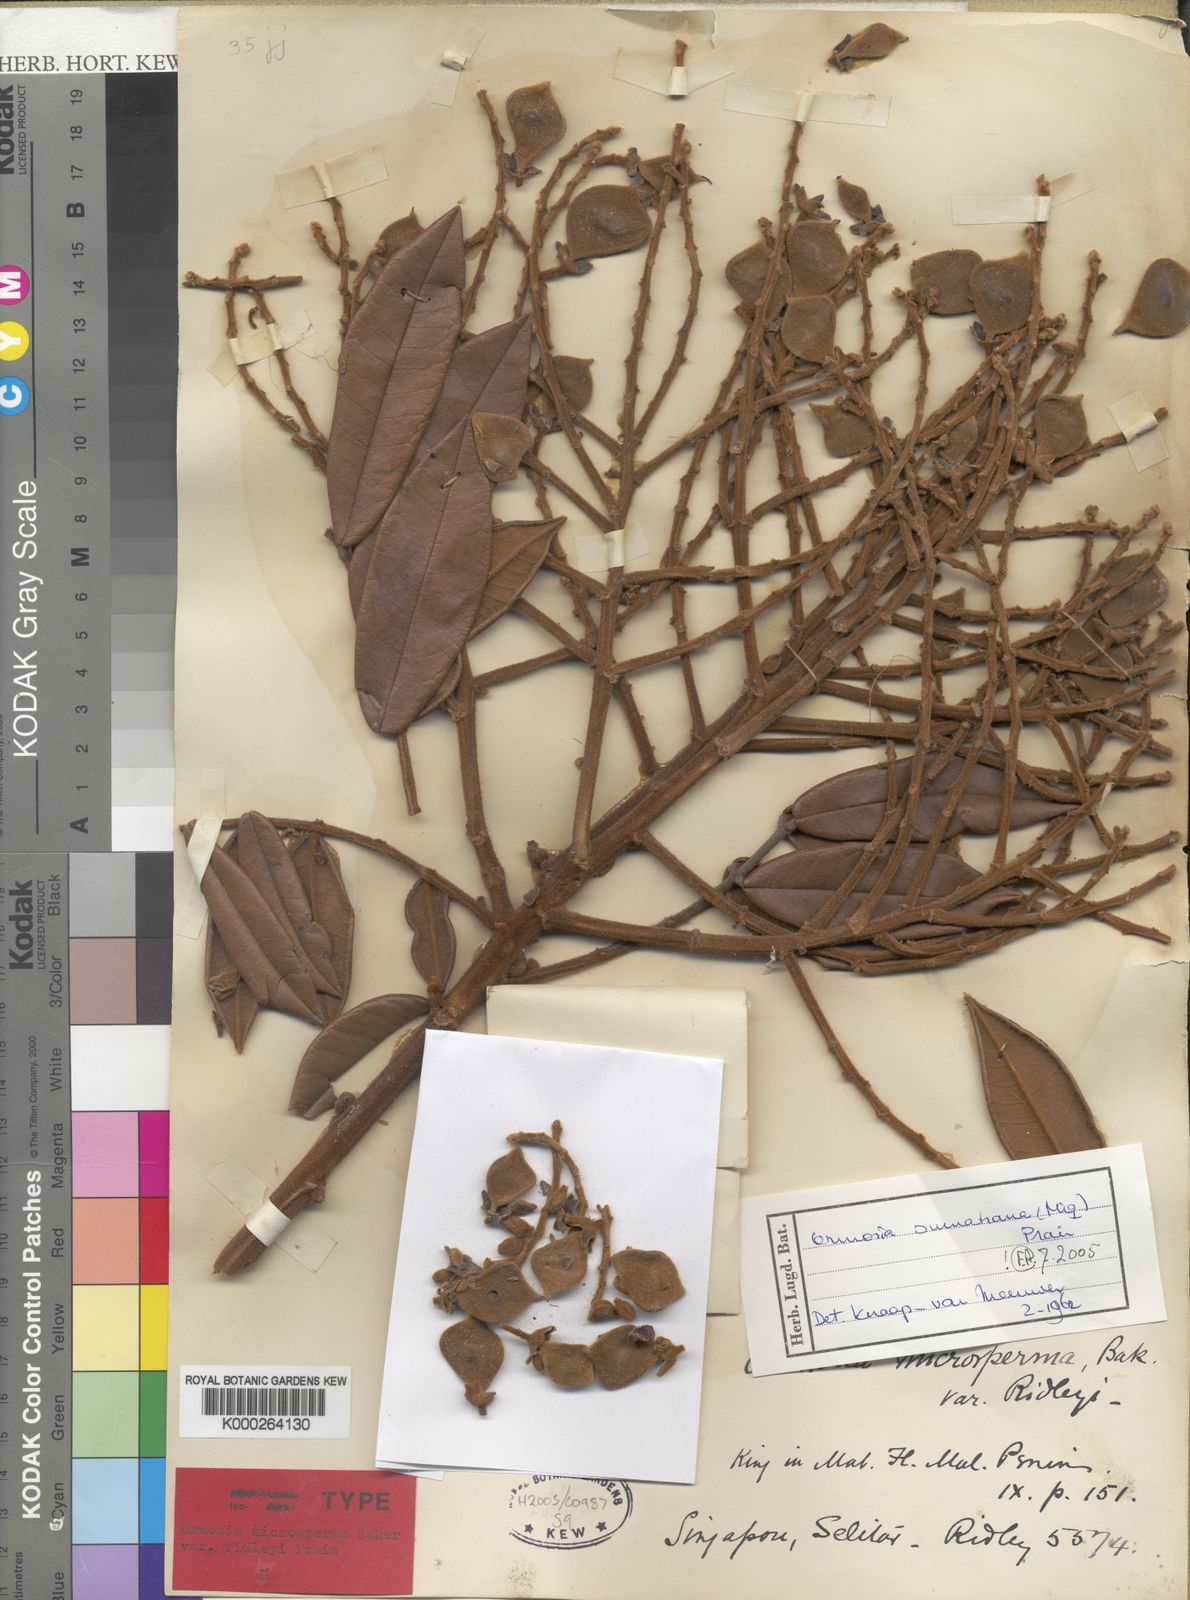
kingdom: Plantae
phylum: Tracheophyta
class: Magnoliopsida
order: Fabales
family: Fabaceae
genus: Ormosia
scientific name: Ormosia sumatrana
